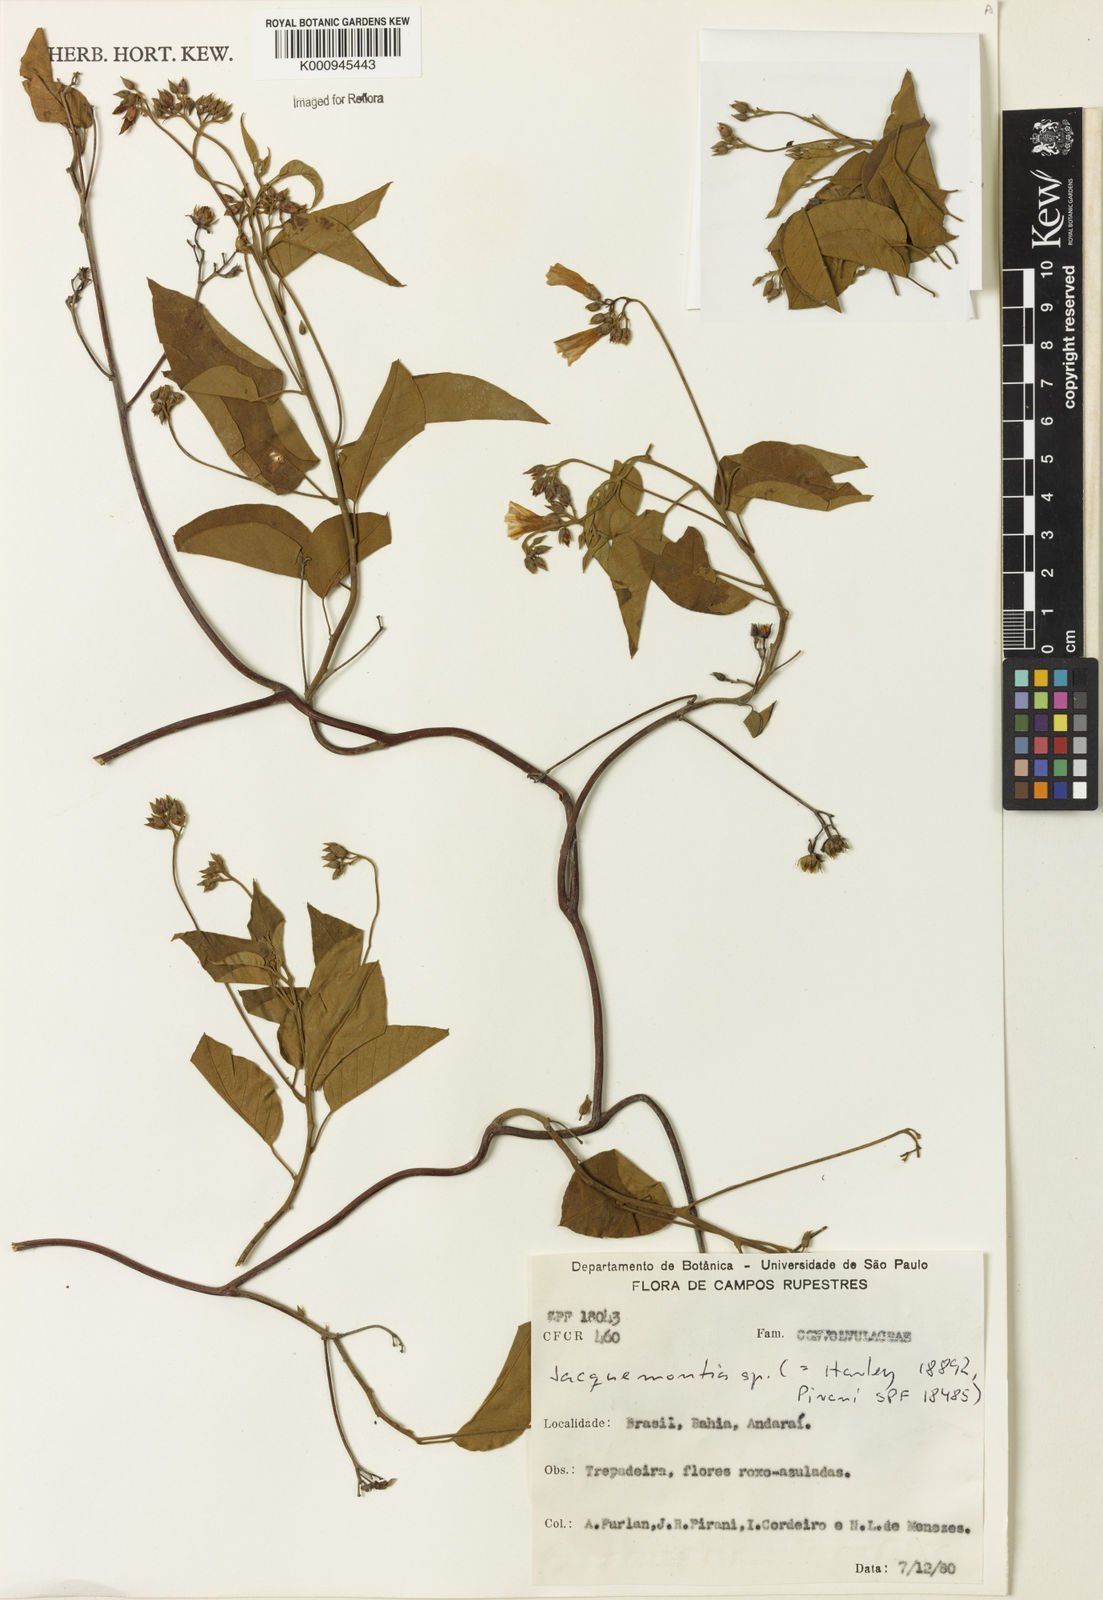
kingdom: Plantae
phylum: Tracheophyta
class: Magnoliopsida
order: Solanales
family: Convolvulaceae
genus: Jacquemontia
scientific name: Jacquemontia
